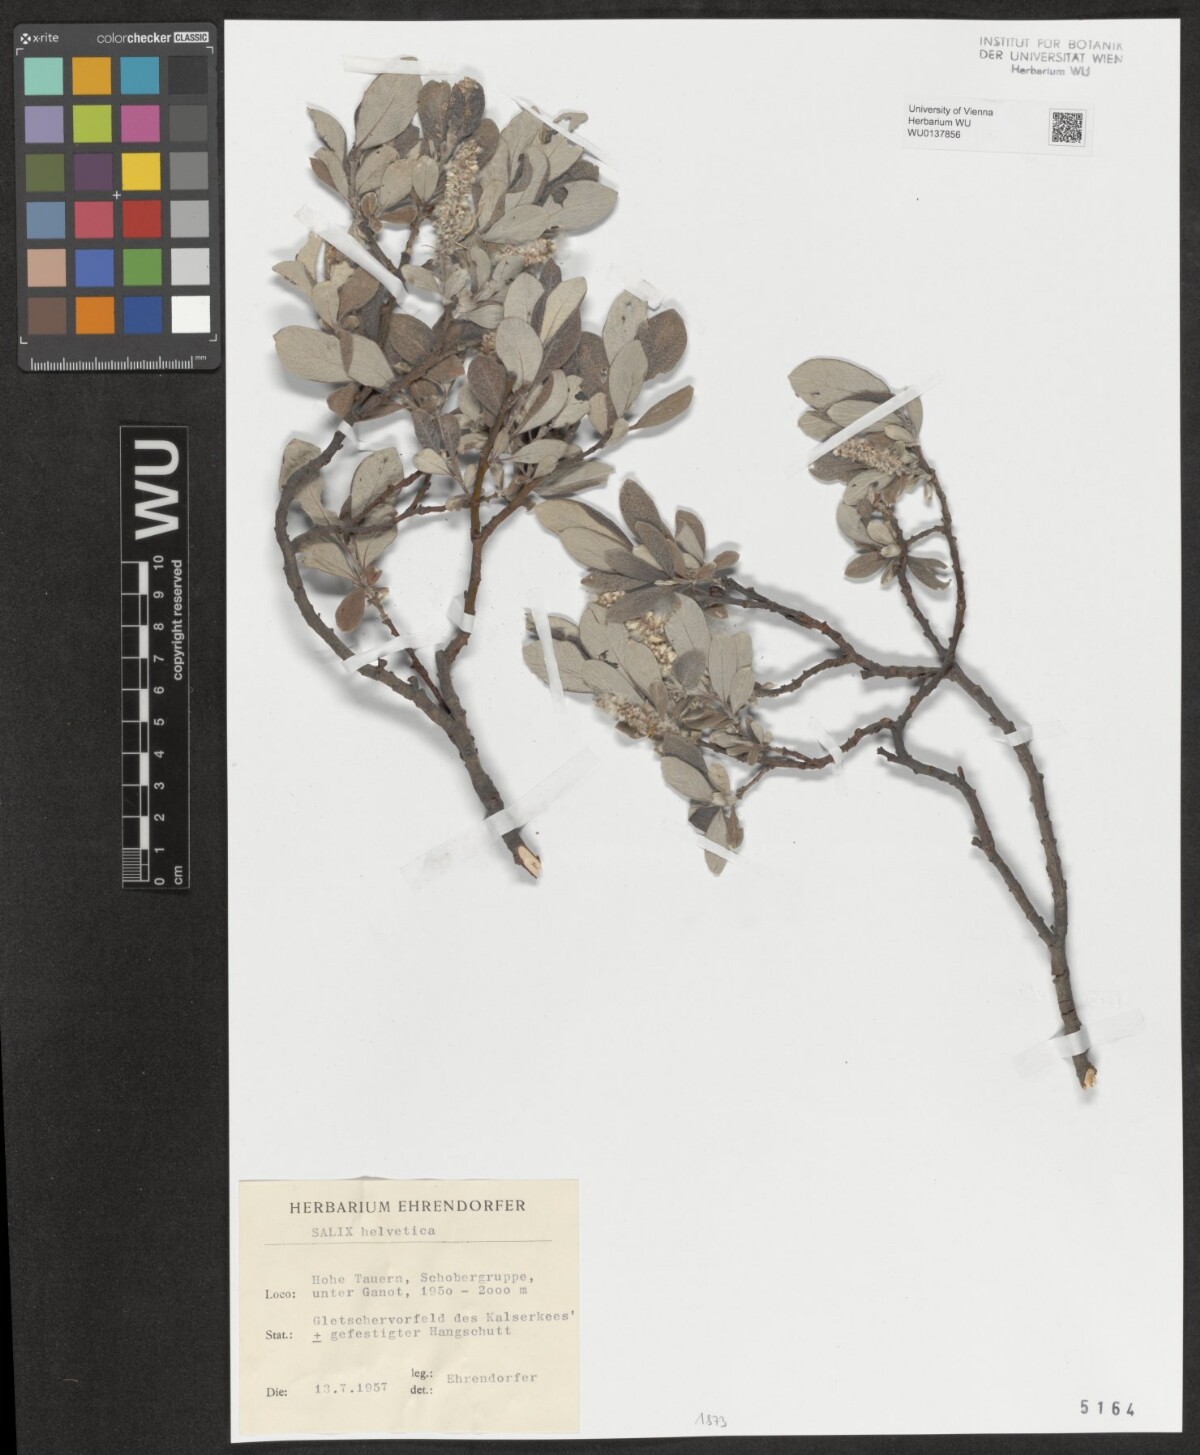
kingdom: Plantae
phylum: Tracheophyta
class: Magnoliopsida
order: Malpighiales
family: Salicaceae
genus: Salix
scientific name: Salix helvetica
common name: Swiss willow
